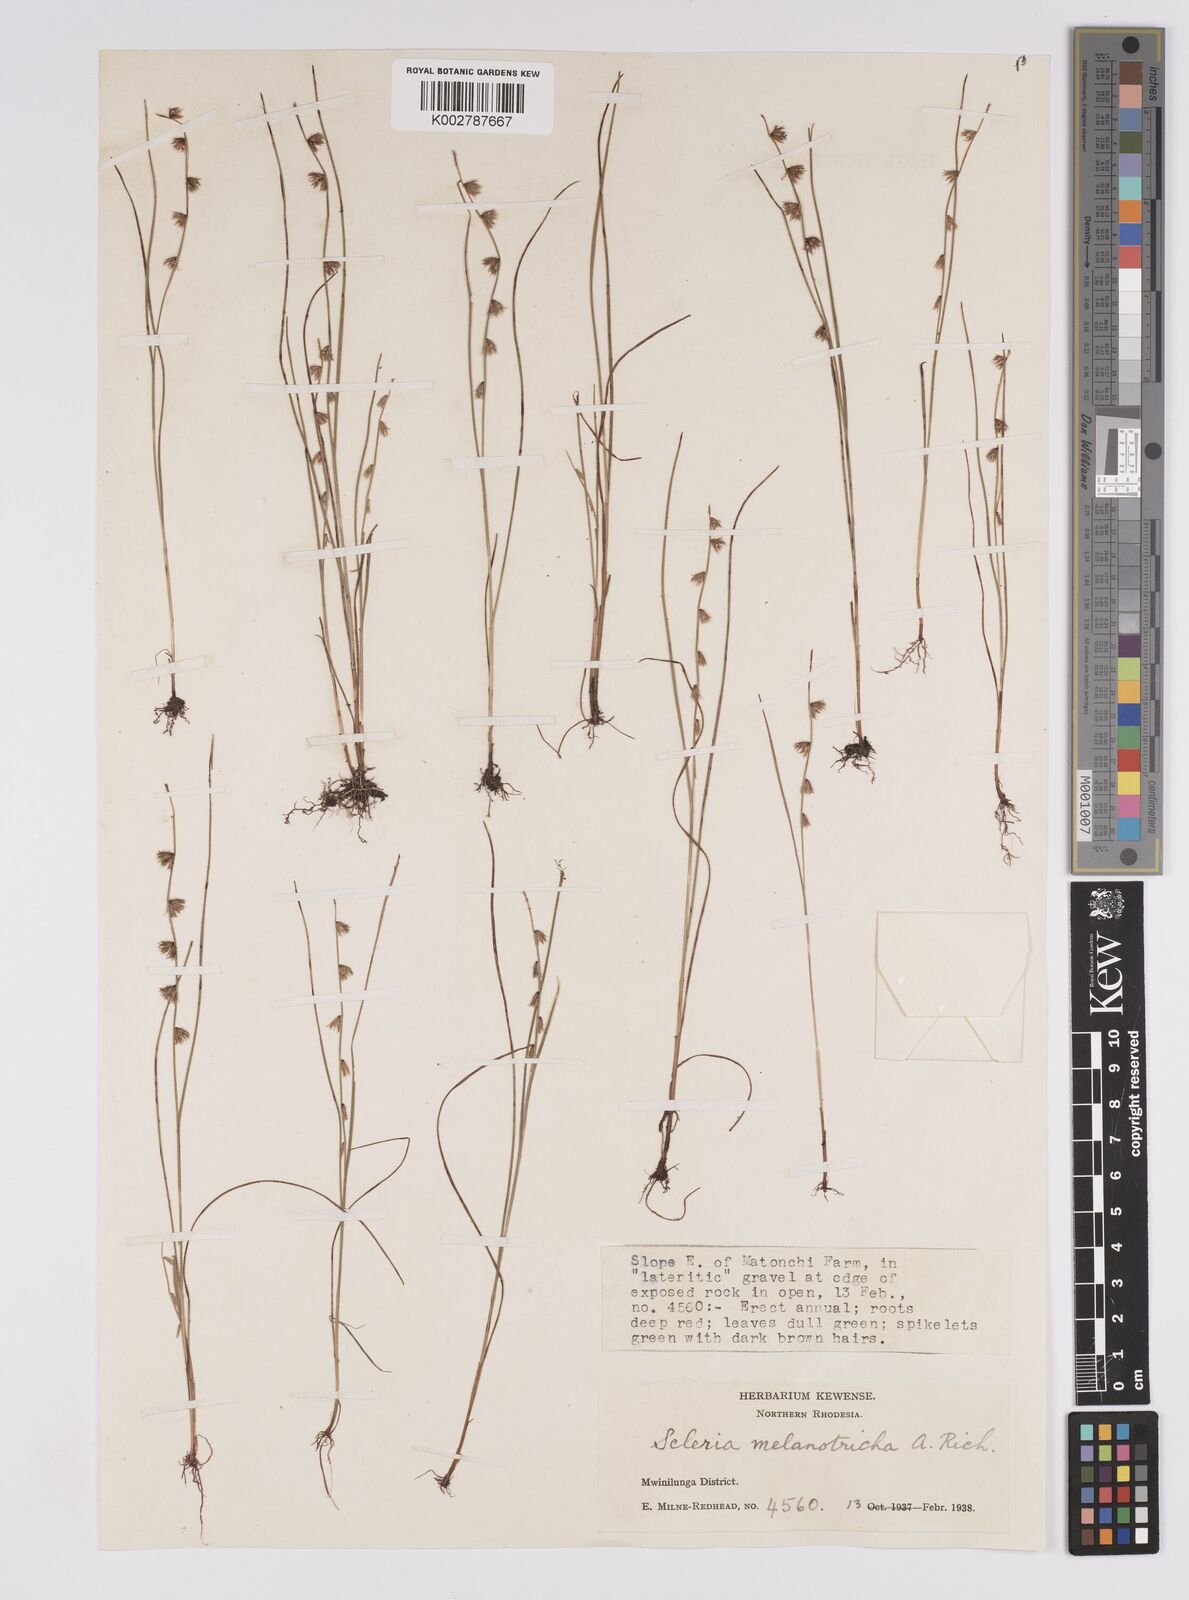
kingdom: Plantae
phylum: Tracheophyta
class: Liliopsida
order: Poales
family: Cyperaceae
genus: Scleria
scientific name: Scleria melanotricha
